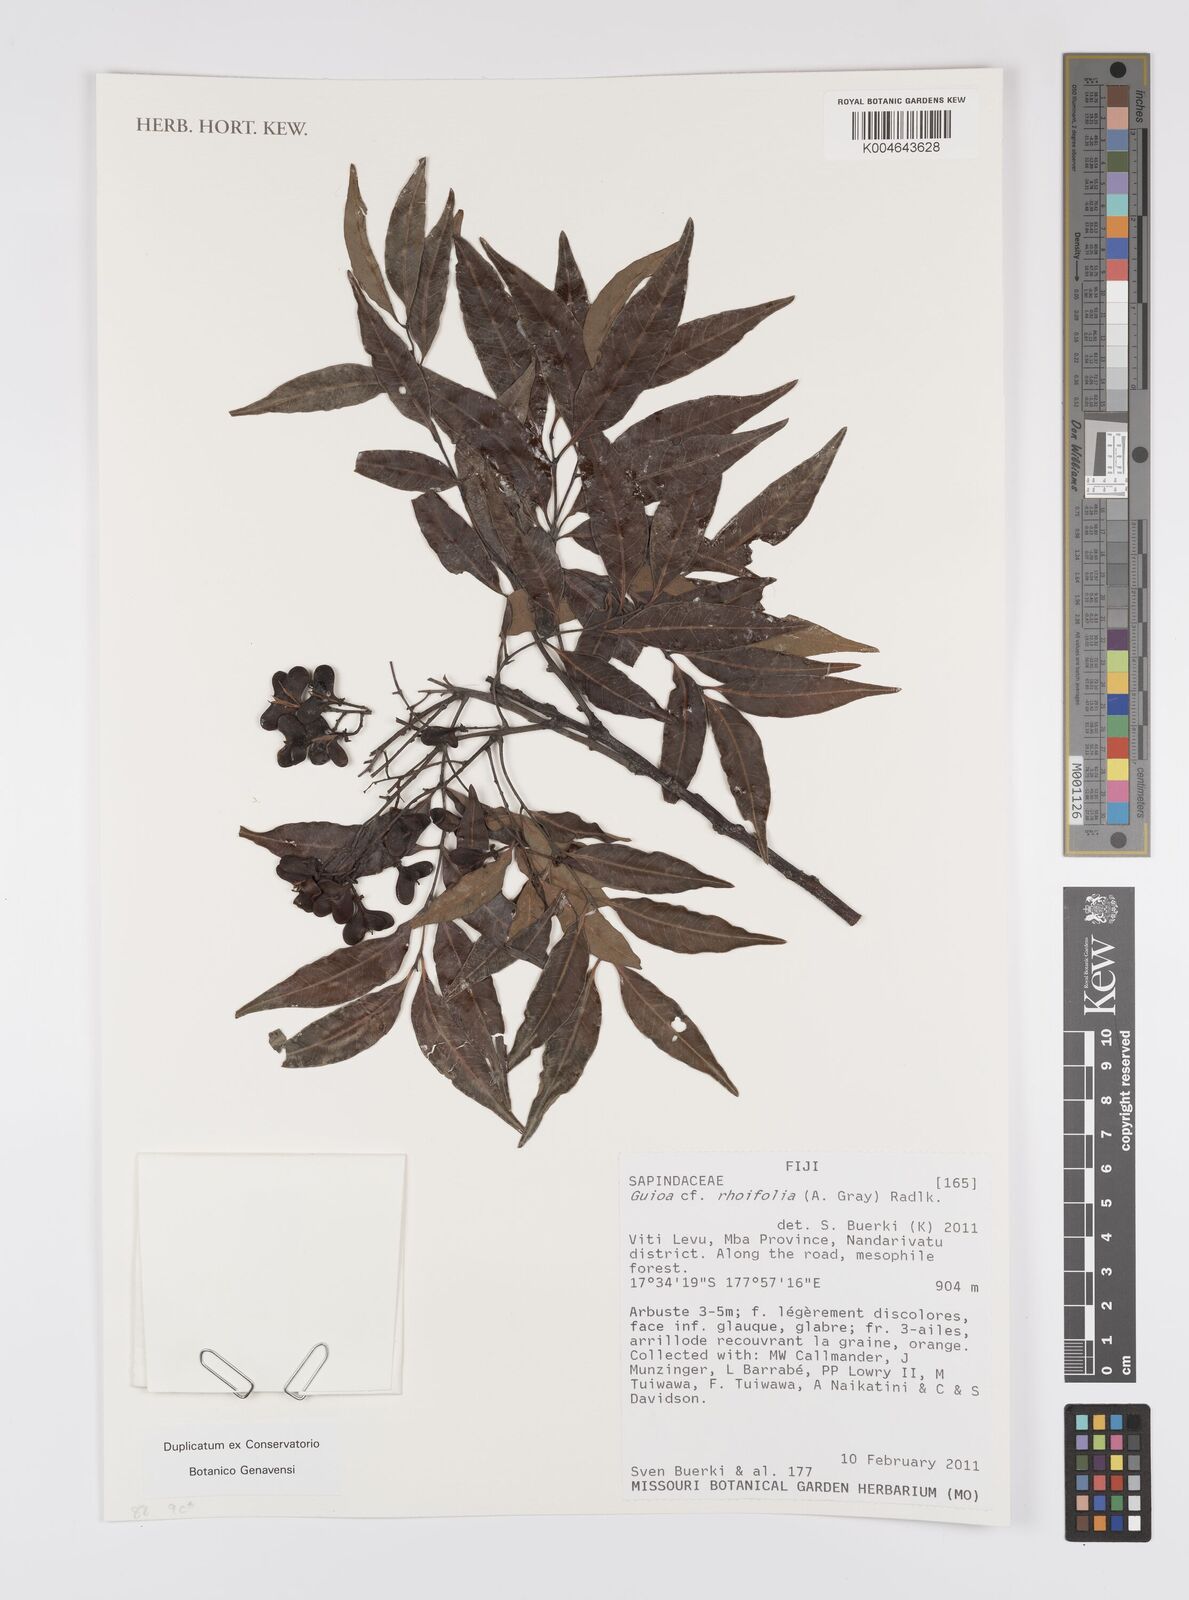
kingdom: Plantae
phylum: Tracheophyta
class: Magnoliopsida
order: Sapindales
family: Sapindaceae
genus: Guioa
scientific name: Guioa rhoifolia
